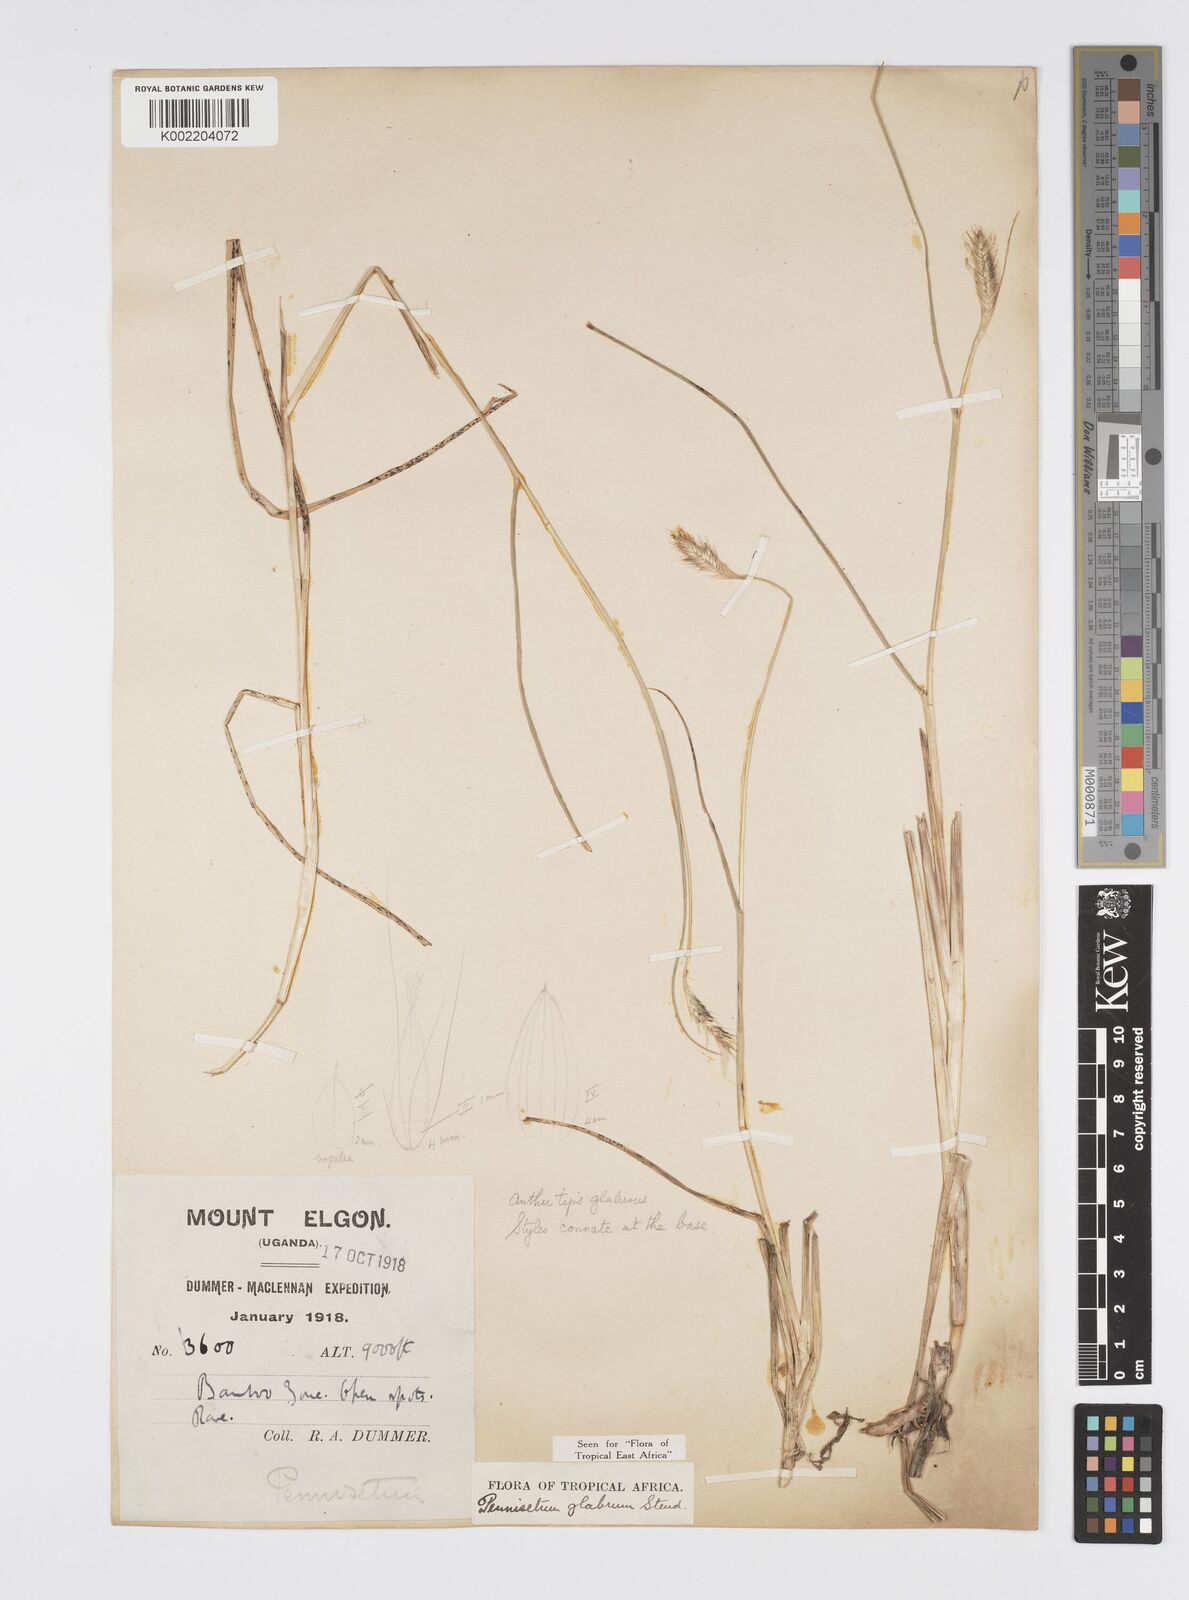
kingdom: Plantae
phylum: Tracheophyta
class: Liliopsida
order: Poales
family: Poaceae
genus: Cenchrus
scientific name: Cenchrus geniculatus
